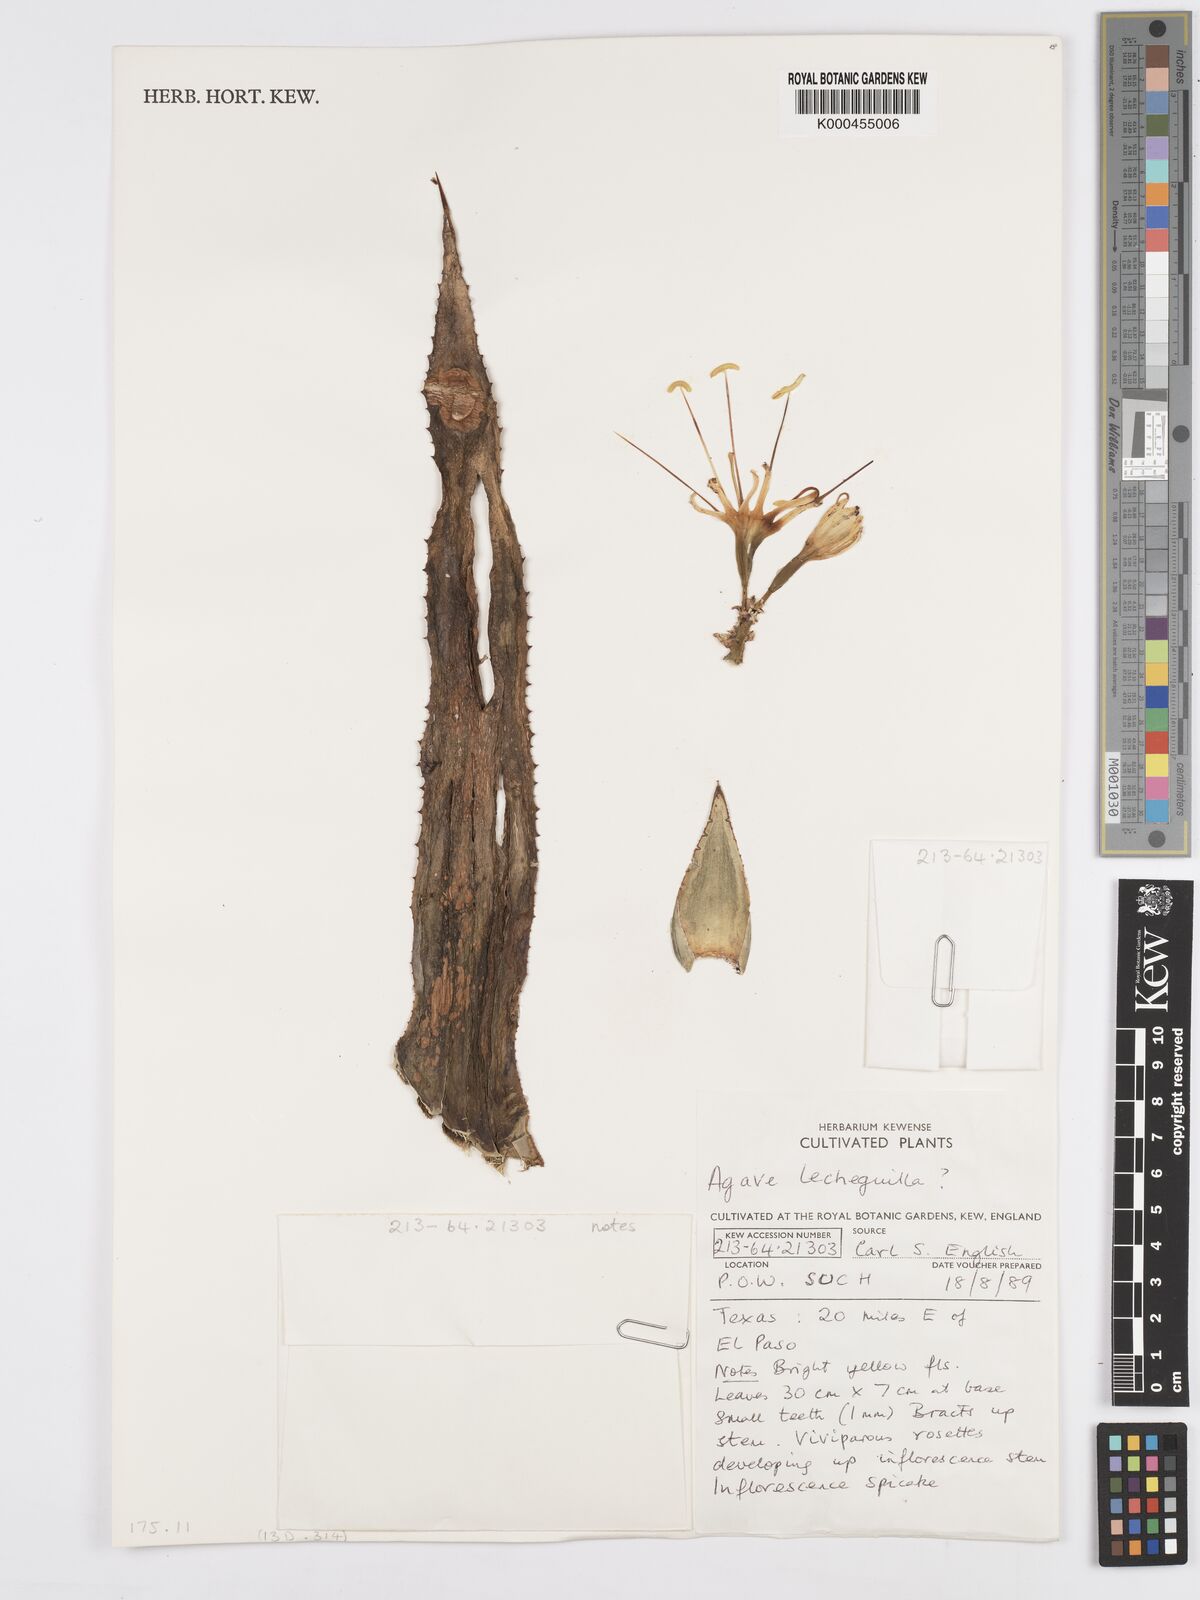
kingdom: Plantae
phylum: Tracheophyta
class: Liliopsida
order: Asparagales
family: Asparagaceae
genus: Agave
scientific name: Agave lechuguilla
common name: Lecheguilla agave
